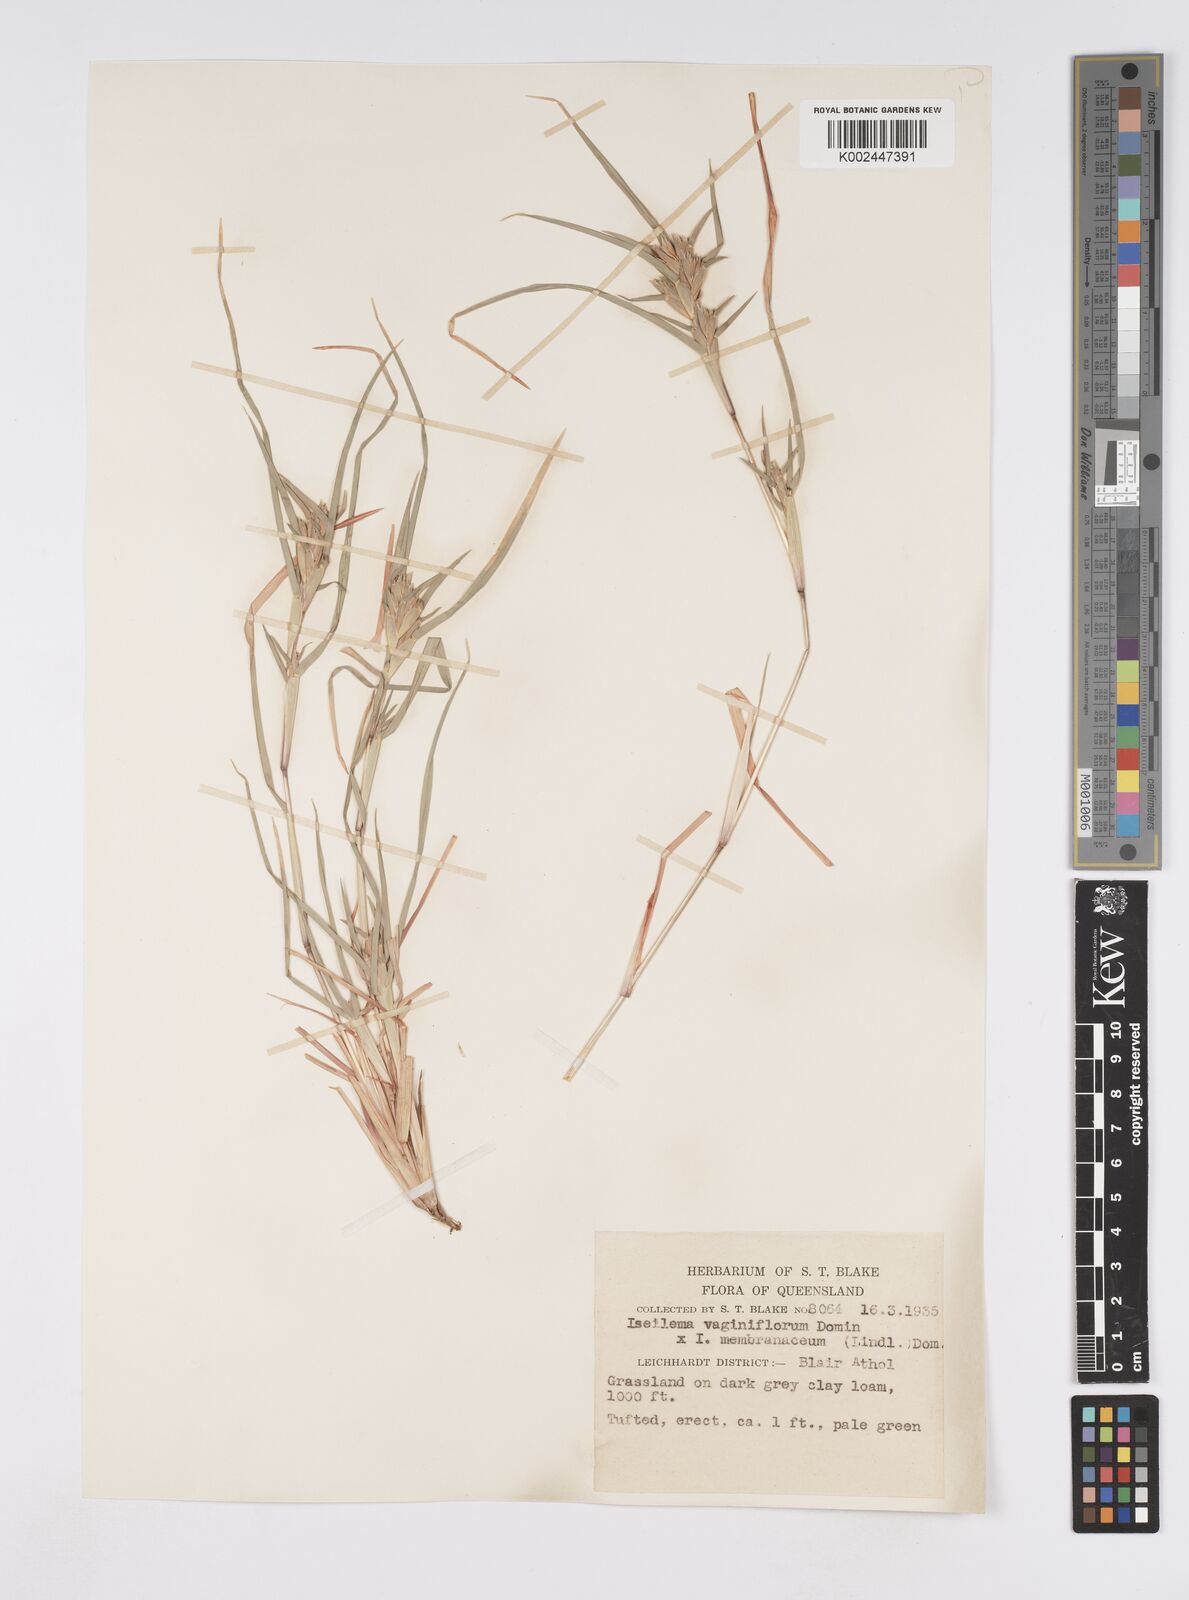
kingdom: Plantae
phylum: Tracheophyta
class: Liliopsida
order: Poales
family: Poaceae
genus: Iseilema
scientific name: Iseilema vaginiflorum
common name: Red flinders grass
